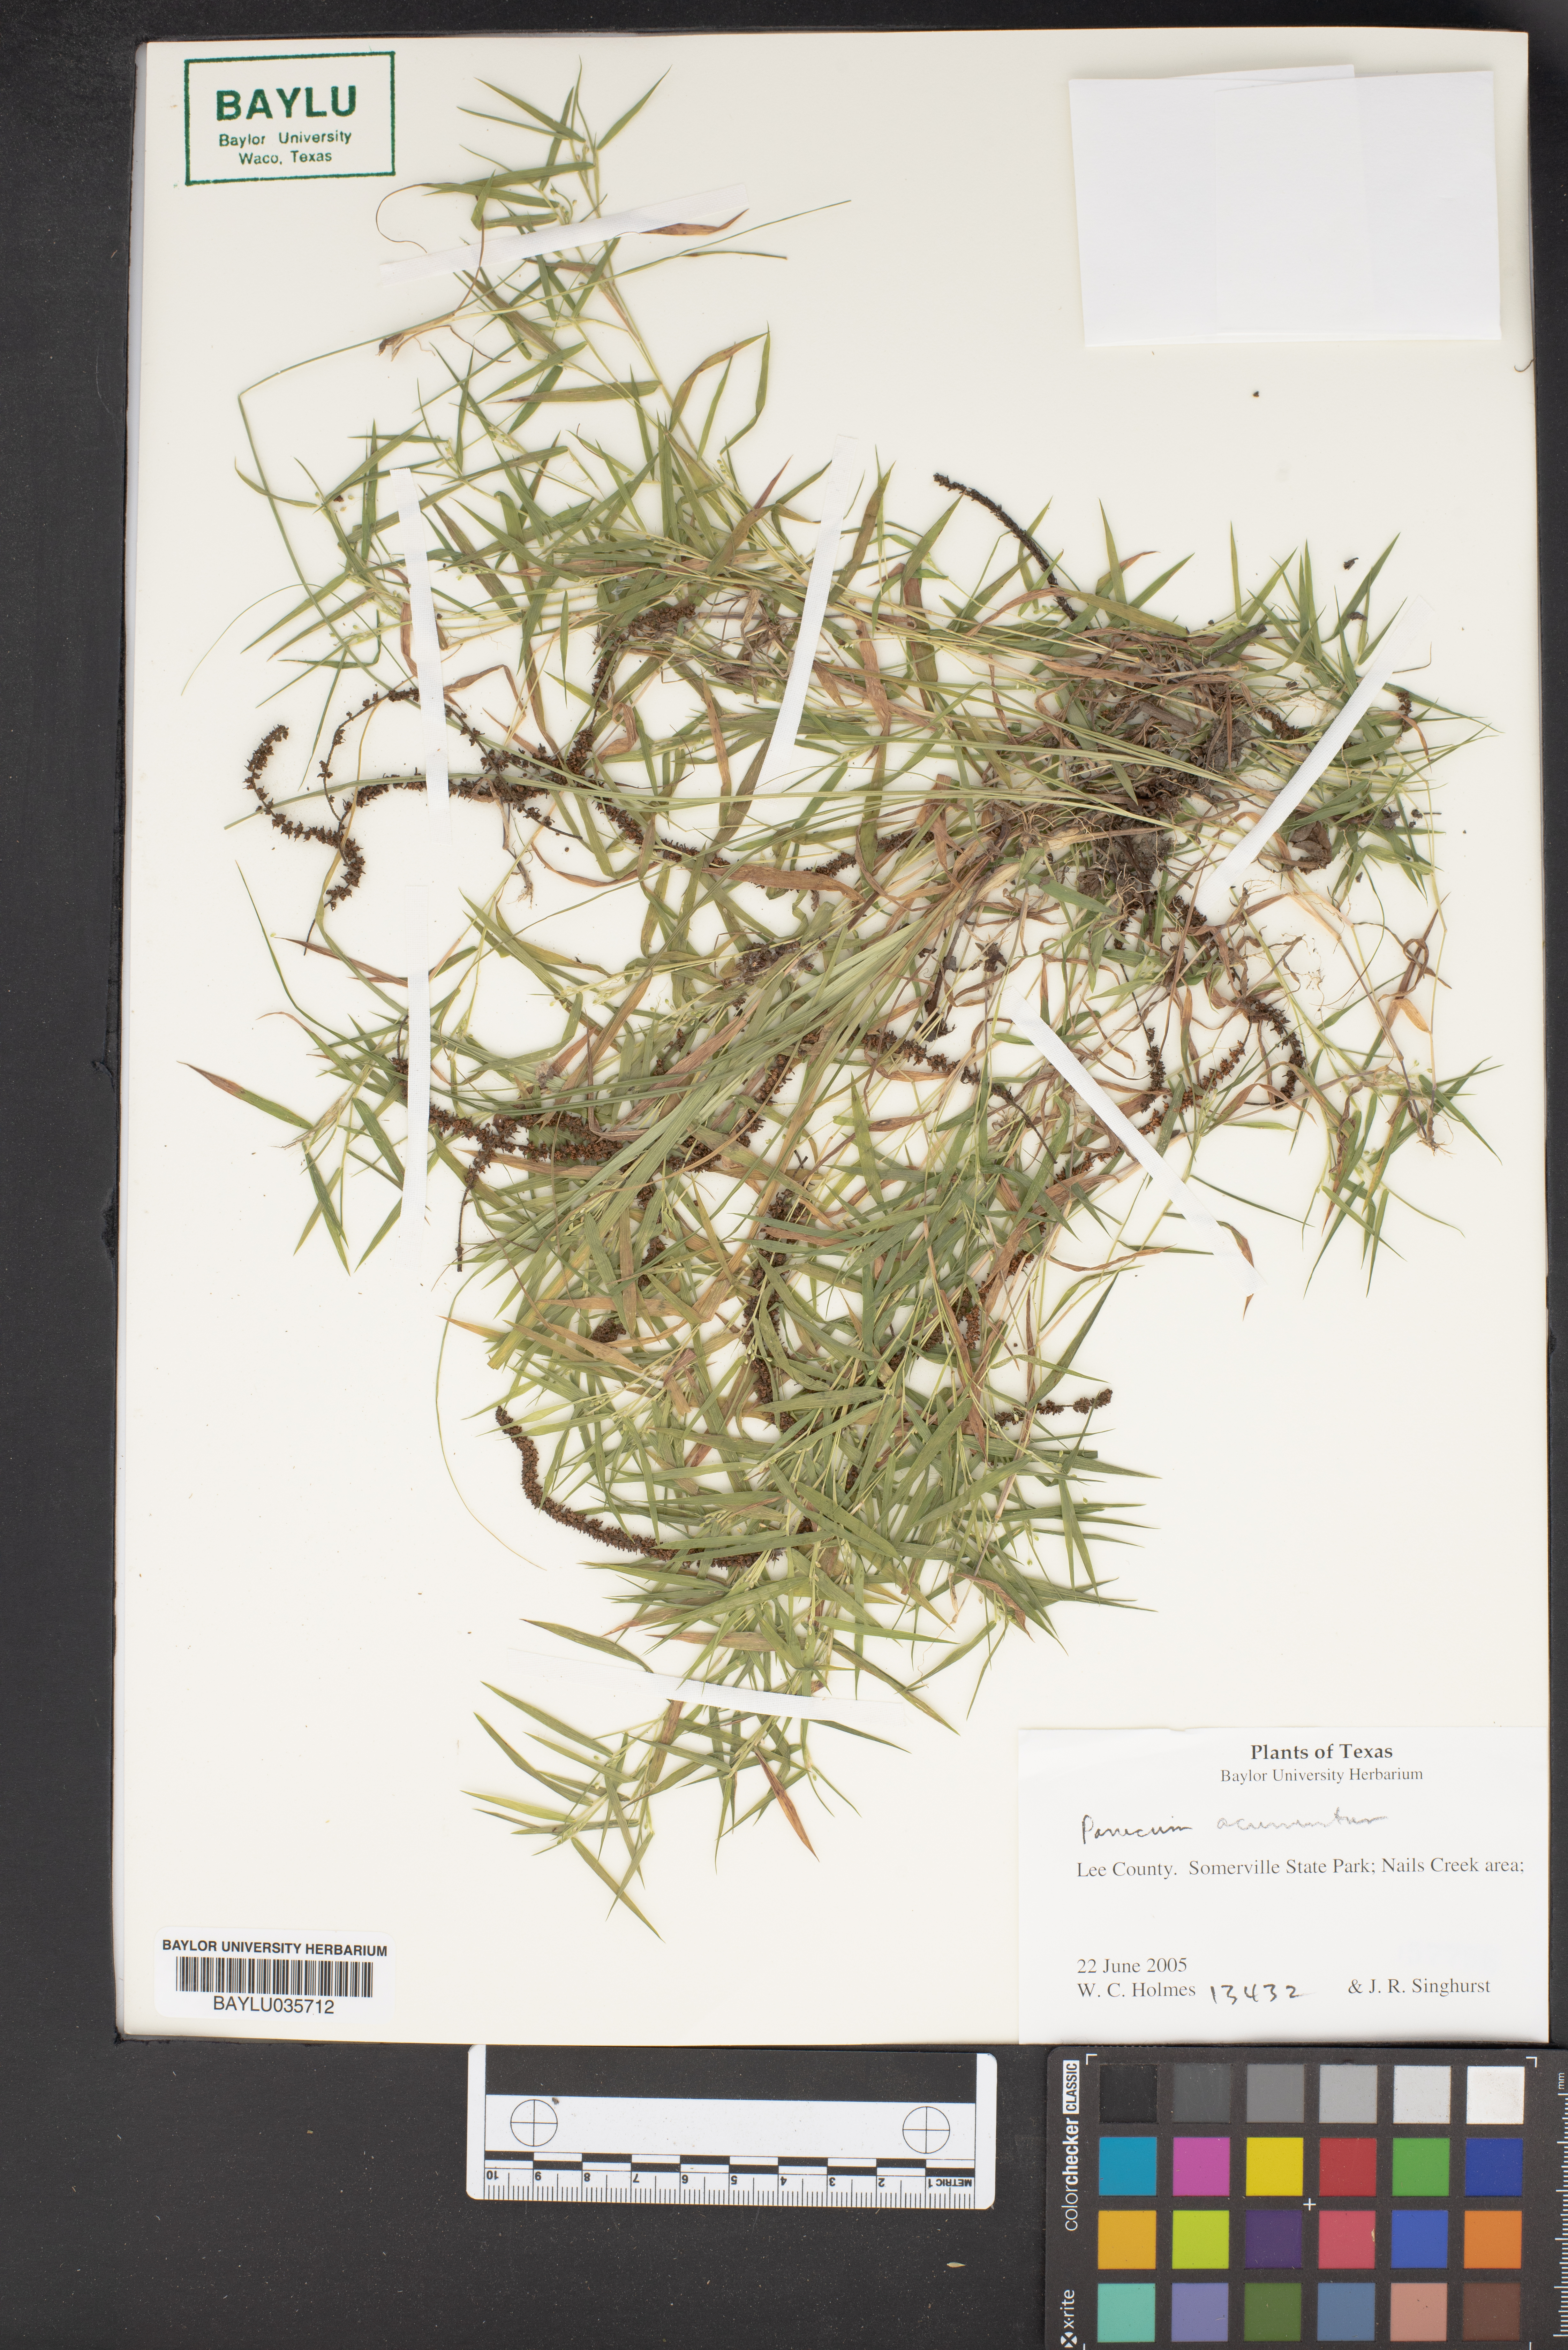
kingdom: Plantae
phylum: Tracheophyta
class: Liliopsida
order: Poales
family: Poaceae
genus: Dichanthelium
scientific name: Dichanthelium sabulorum
